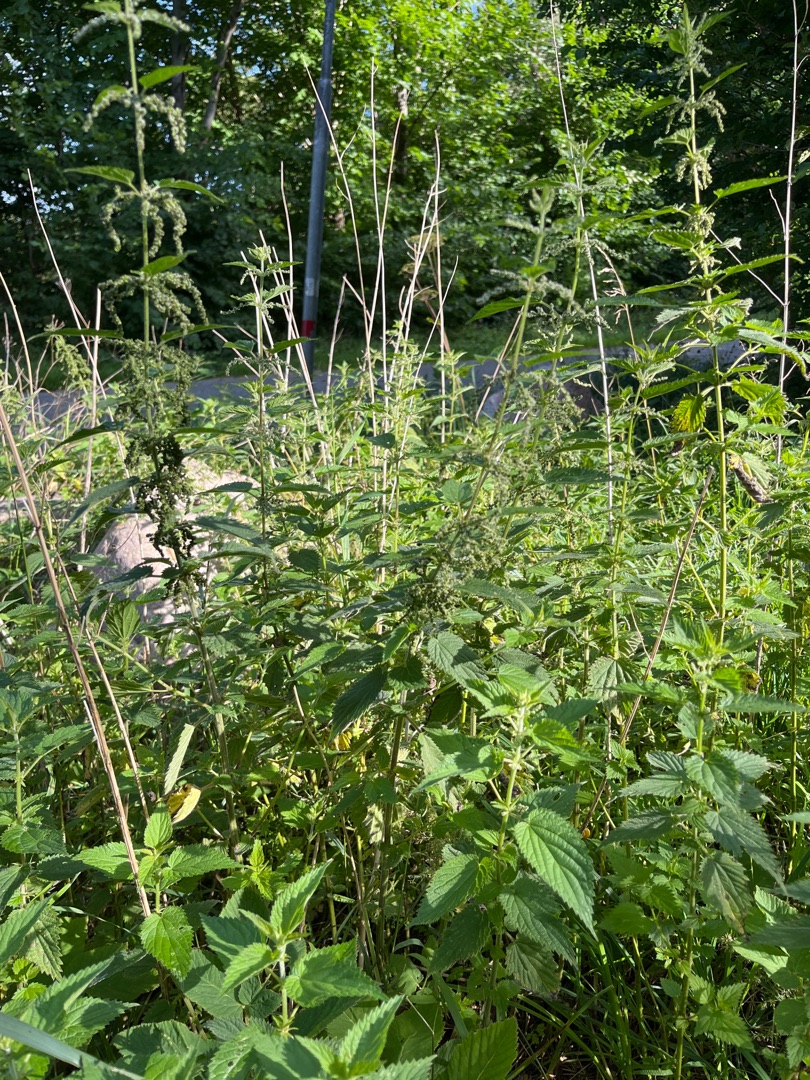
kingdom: Plantae
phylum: Tracheophyta
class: Magnoliopsida
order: Rosales
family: Urticaceae
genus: Urtica
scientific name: Urtica dioica
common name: Stor nælde
